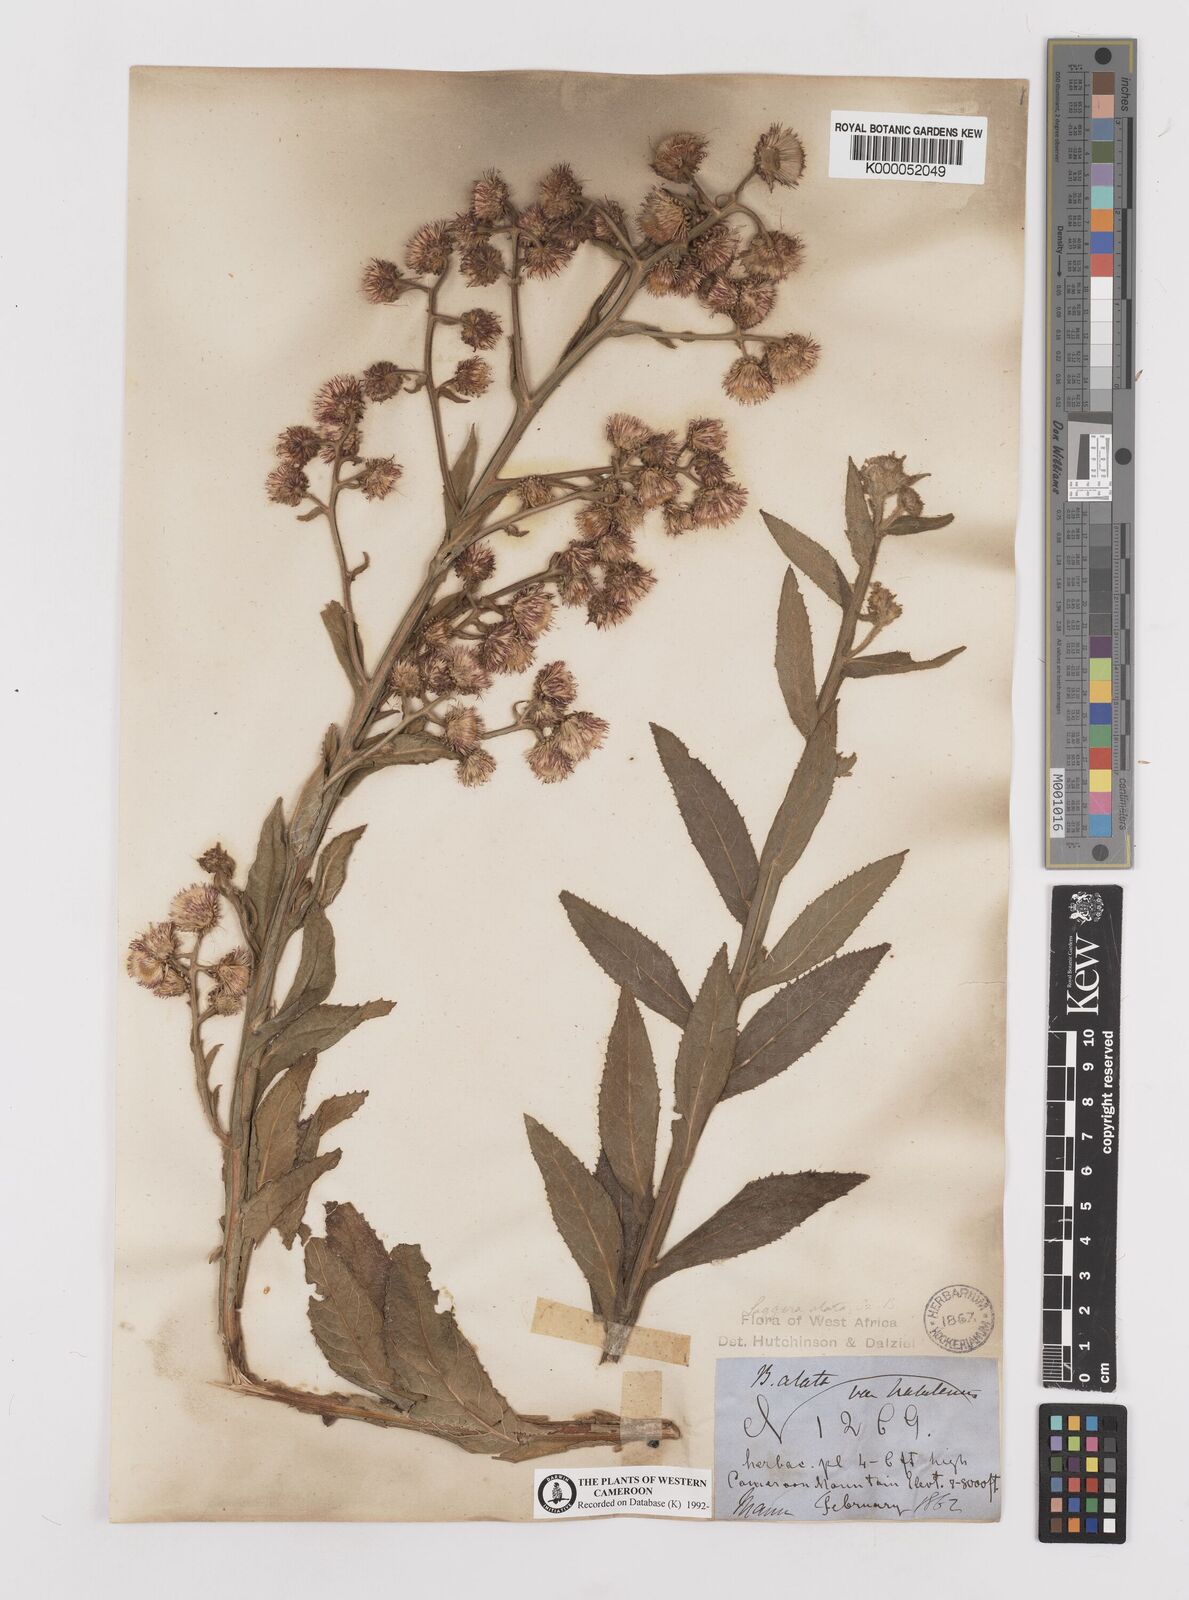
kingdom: Plantae
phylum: Tracheophyta
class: Magnoliopsida
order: Asterales
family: Asteraceae
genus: Laggera
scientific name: Laggera crispata
